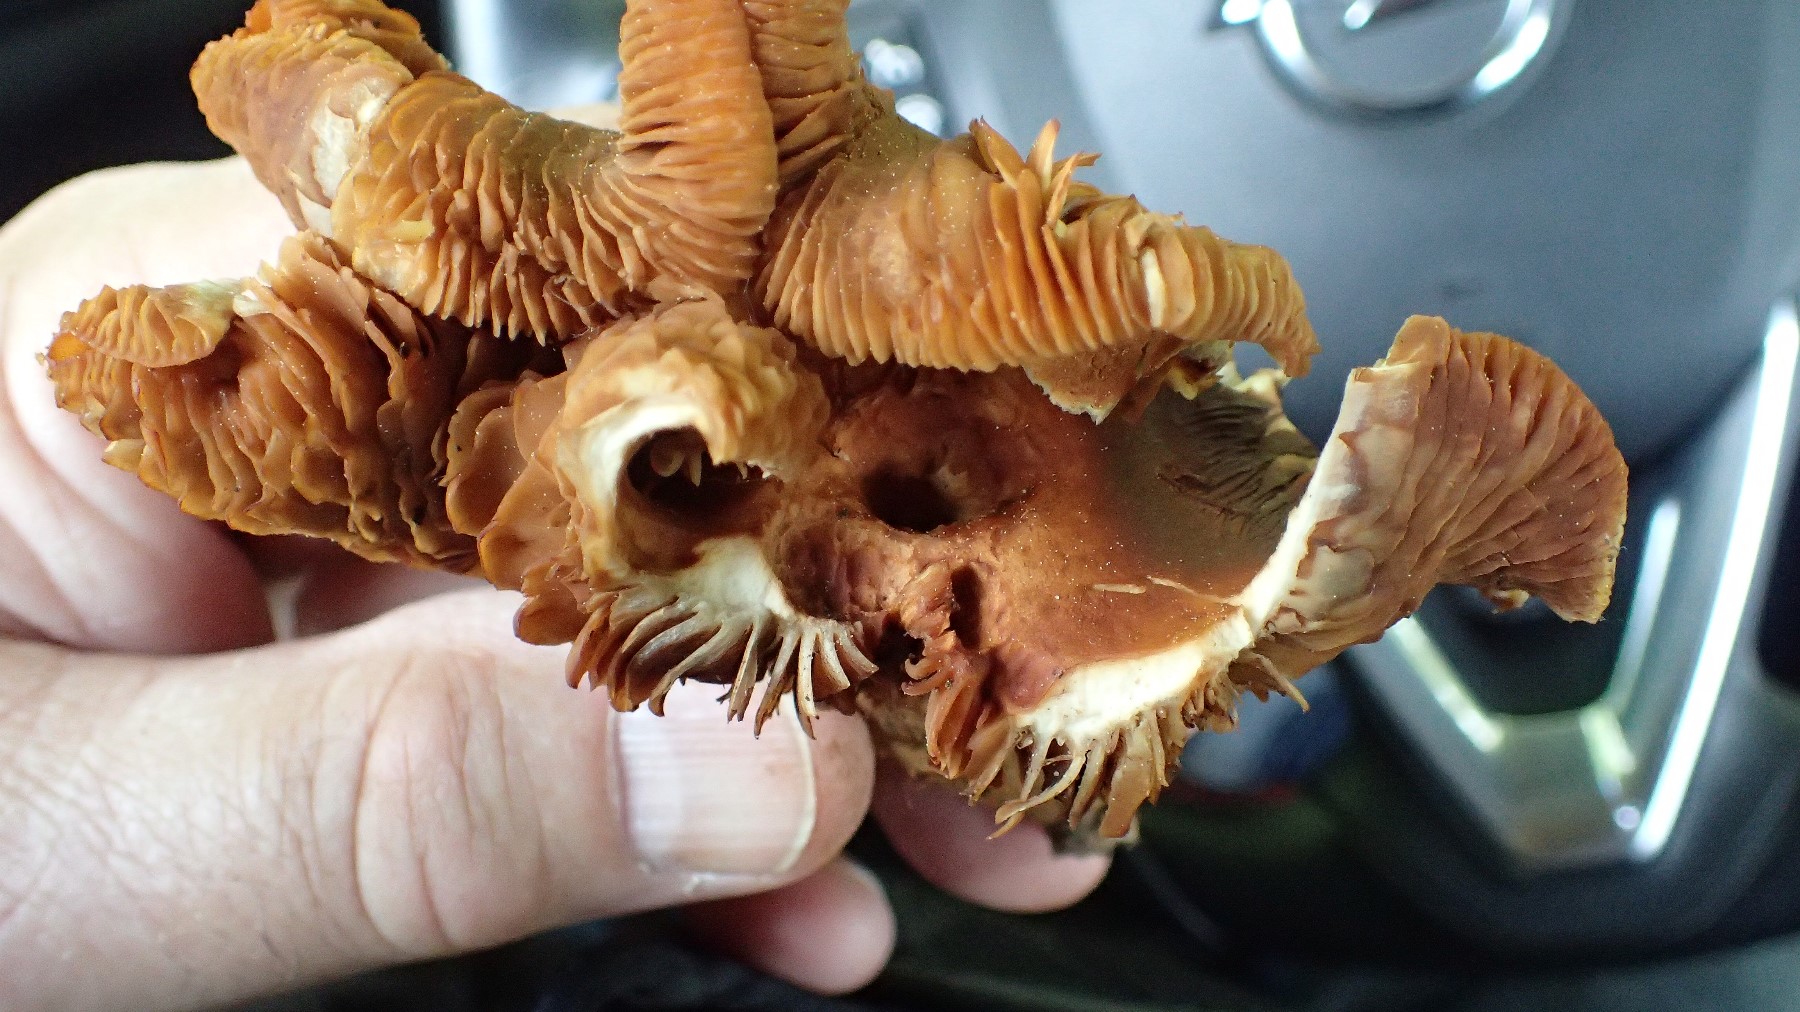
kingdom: Fungi
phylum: Basidiomycota
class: Agaricomycetes
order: Agaricales
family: Strophariaceae
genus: Kuehneromyces
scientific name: Kuehneromyces mutabilis
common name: foranderlig skælhat
